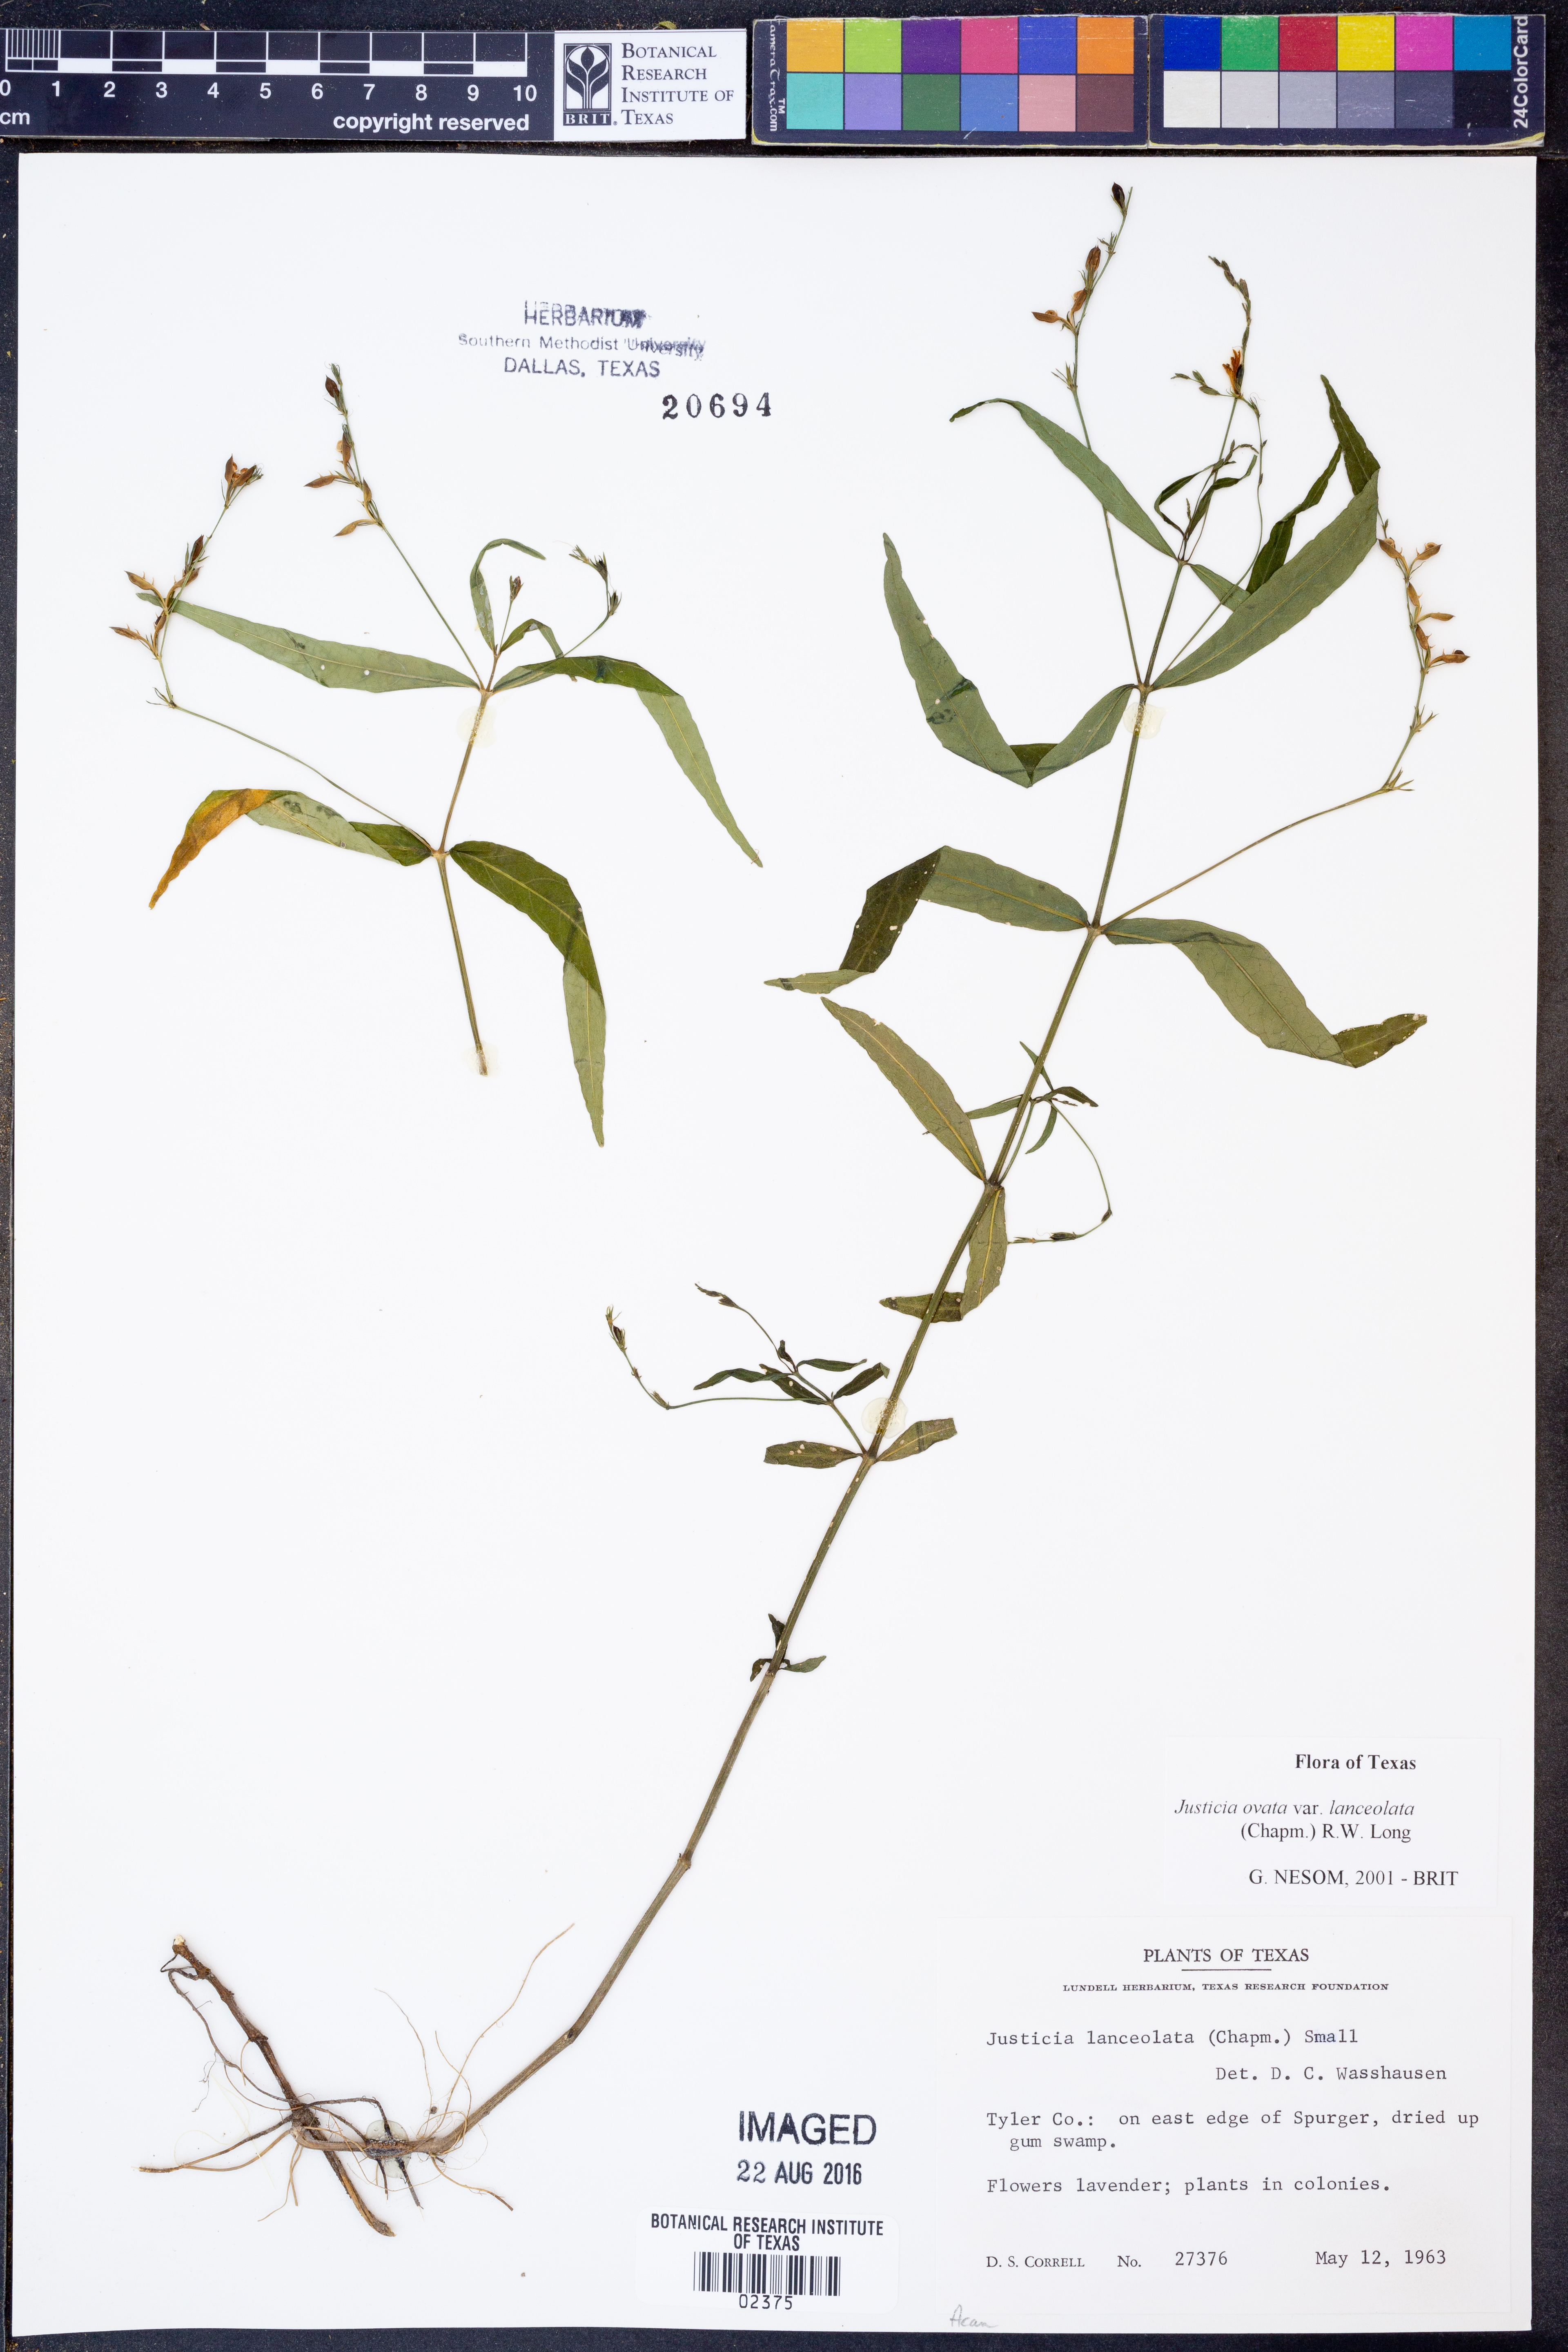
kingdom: Plantae
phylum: Tracheophyta
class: Magnoliopsida
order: Lamiales
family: Acanthaceae
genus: Justicia
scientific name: Justicia lanceolata
